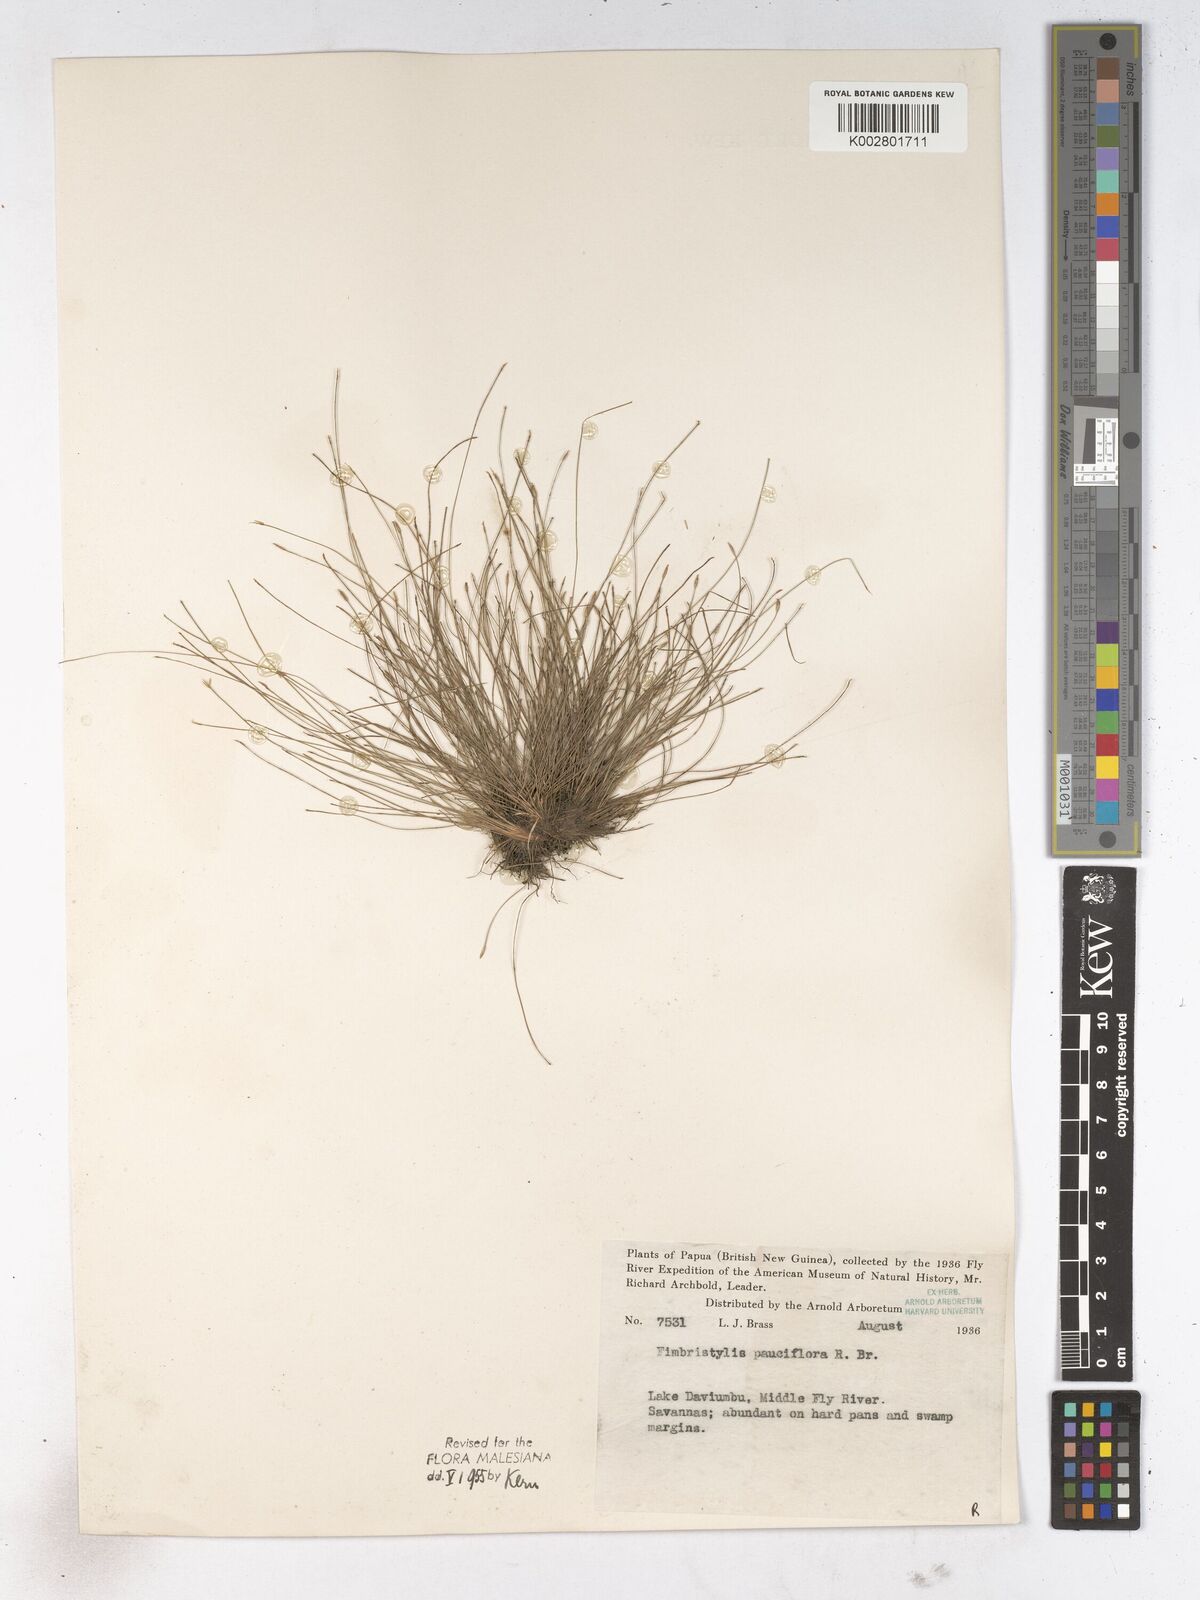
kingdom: Plantae
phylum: Tracheophyta
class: Liliopsida
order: Poales
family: Cyperaceae
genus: Fimbristylis
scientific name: Fimbristylis pauciflora
